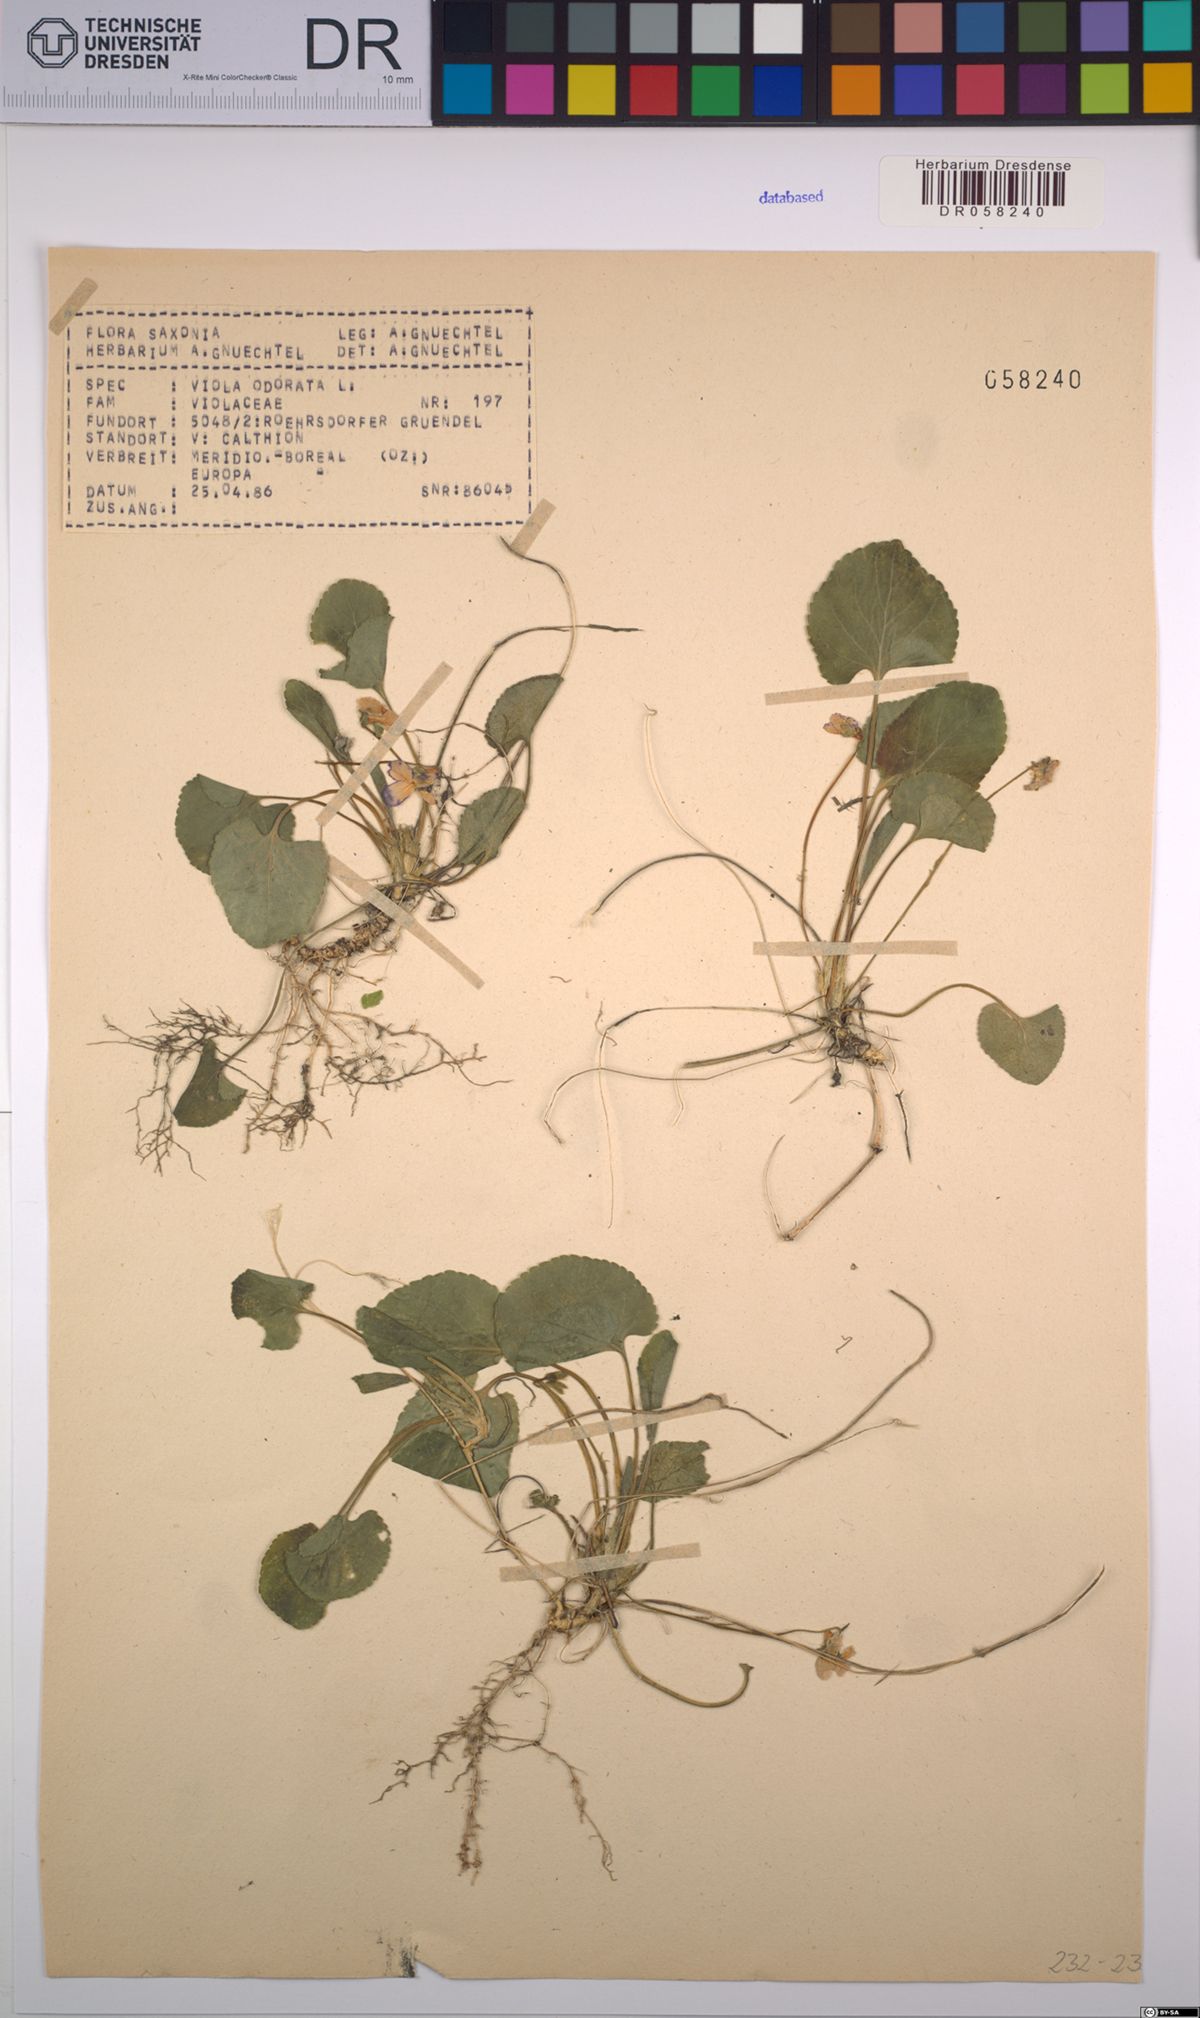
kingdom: Plantae
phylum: Tracheophyta
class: Magnoliopsida
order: Malpighiales
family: Violaceae
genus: Viola
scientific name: Viola odorata
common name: Sweet violet
